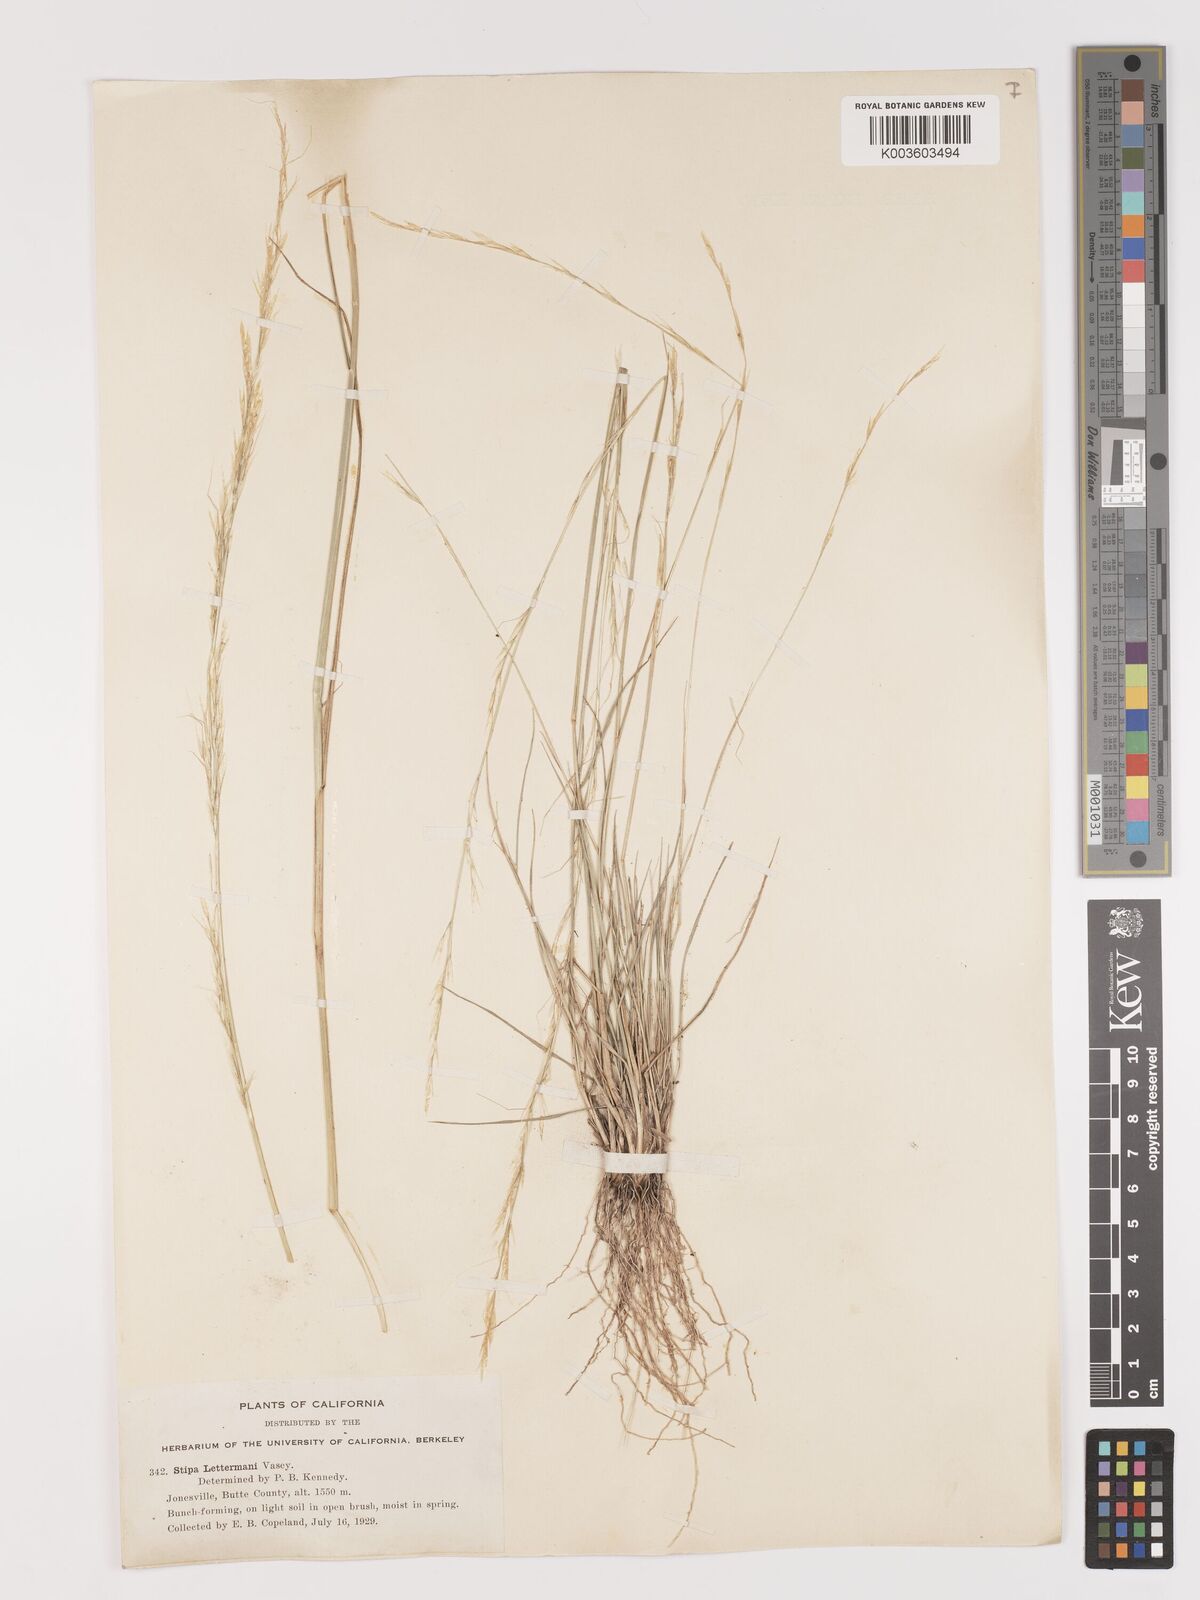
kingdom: Plantae
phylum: Tracheophyta
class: Liliopsida
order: Poales
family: Poaceae
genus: Eriocoma
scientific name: Eriocoma lettermanii
